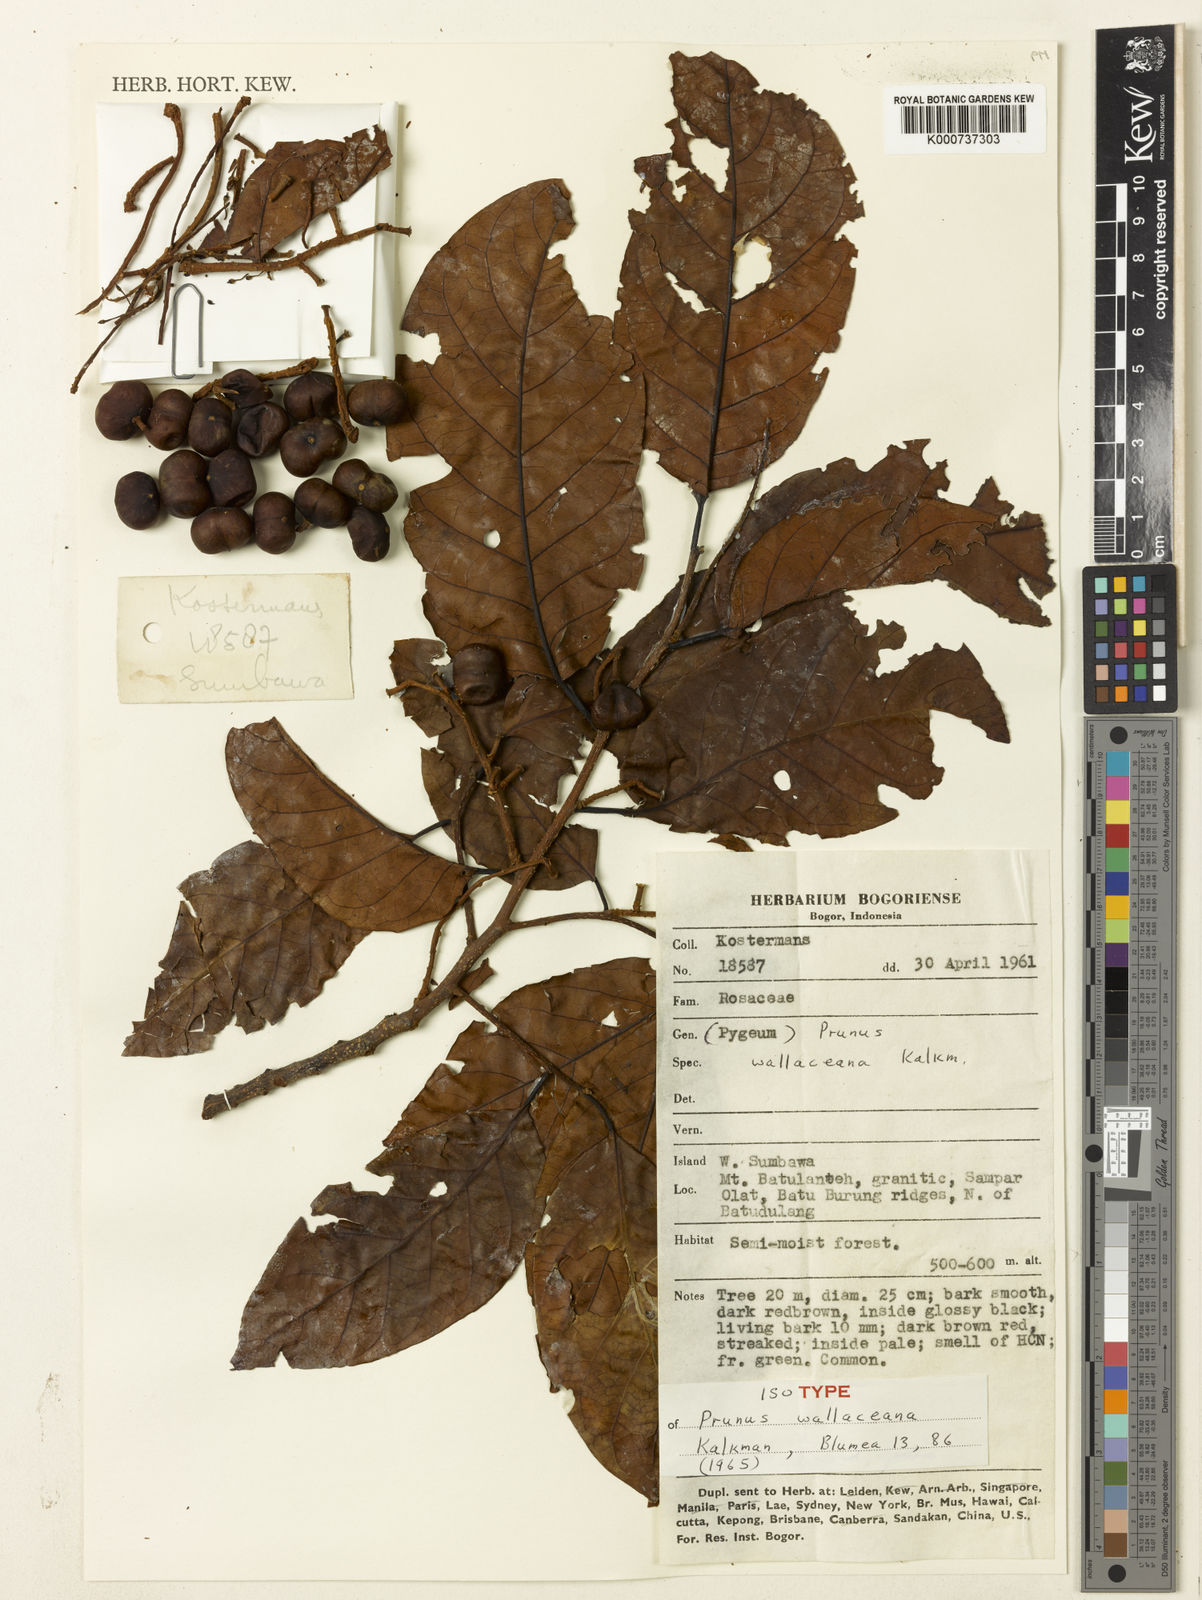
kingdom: Plantae
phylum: Tracheophyta
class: Magnoliopsida
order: Rosales
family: Rosaceae
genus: Prunus
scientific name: Prunus wallaceana
